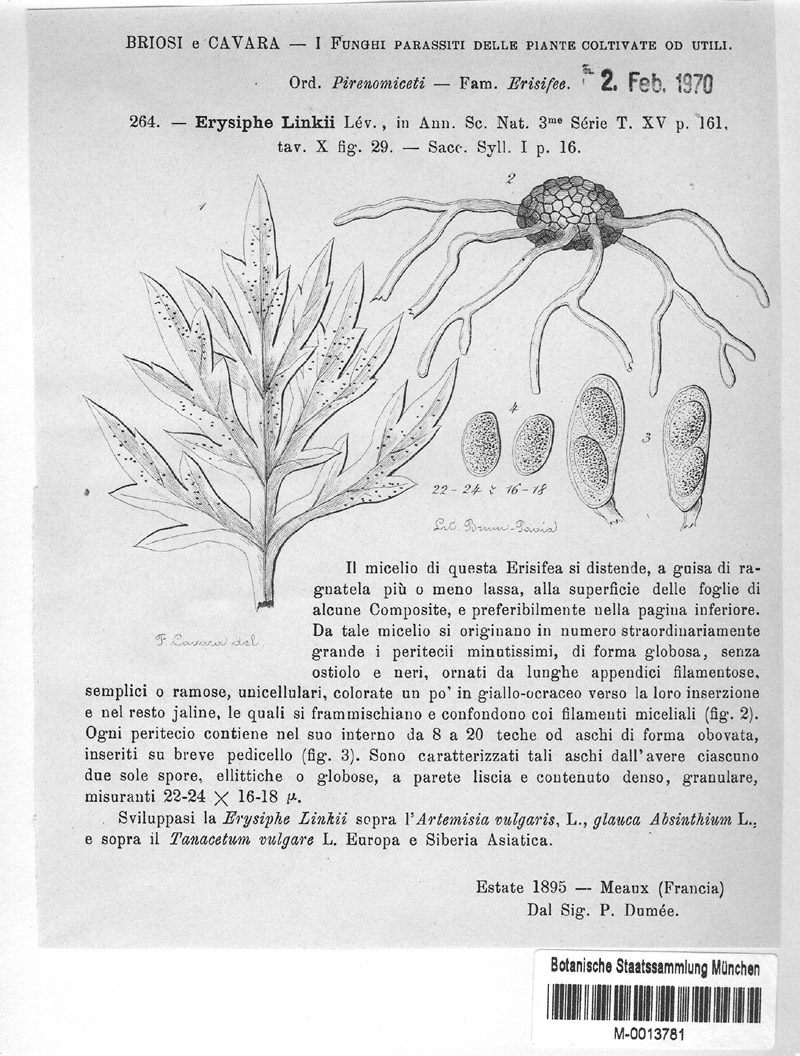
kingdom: Fungi
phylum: Ascomycota
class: Leotiomycetes
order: Helotiales
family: Erysiphaceae
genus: Golovinomyces
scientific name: Golovinomyces artemisiae
